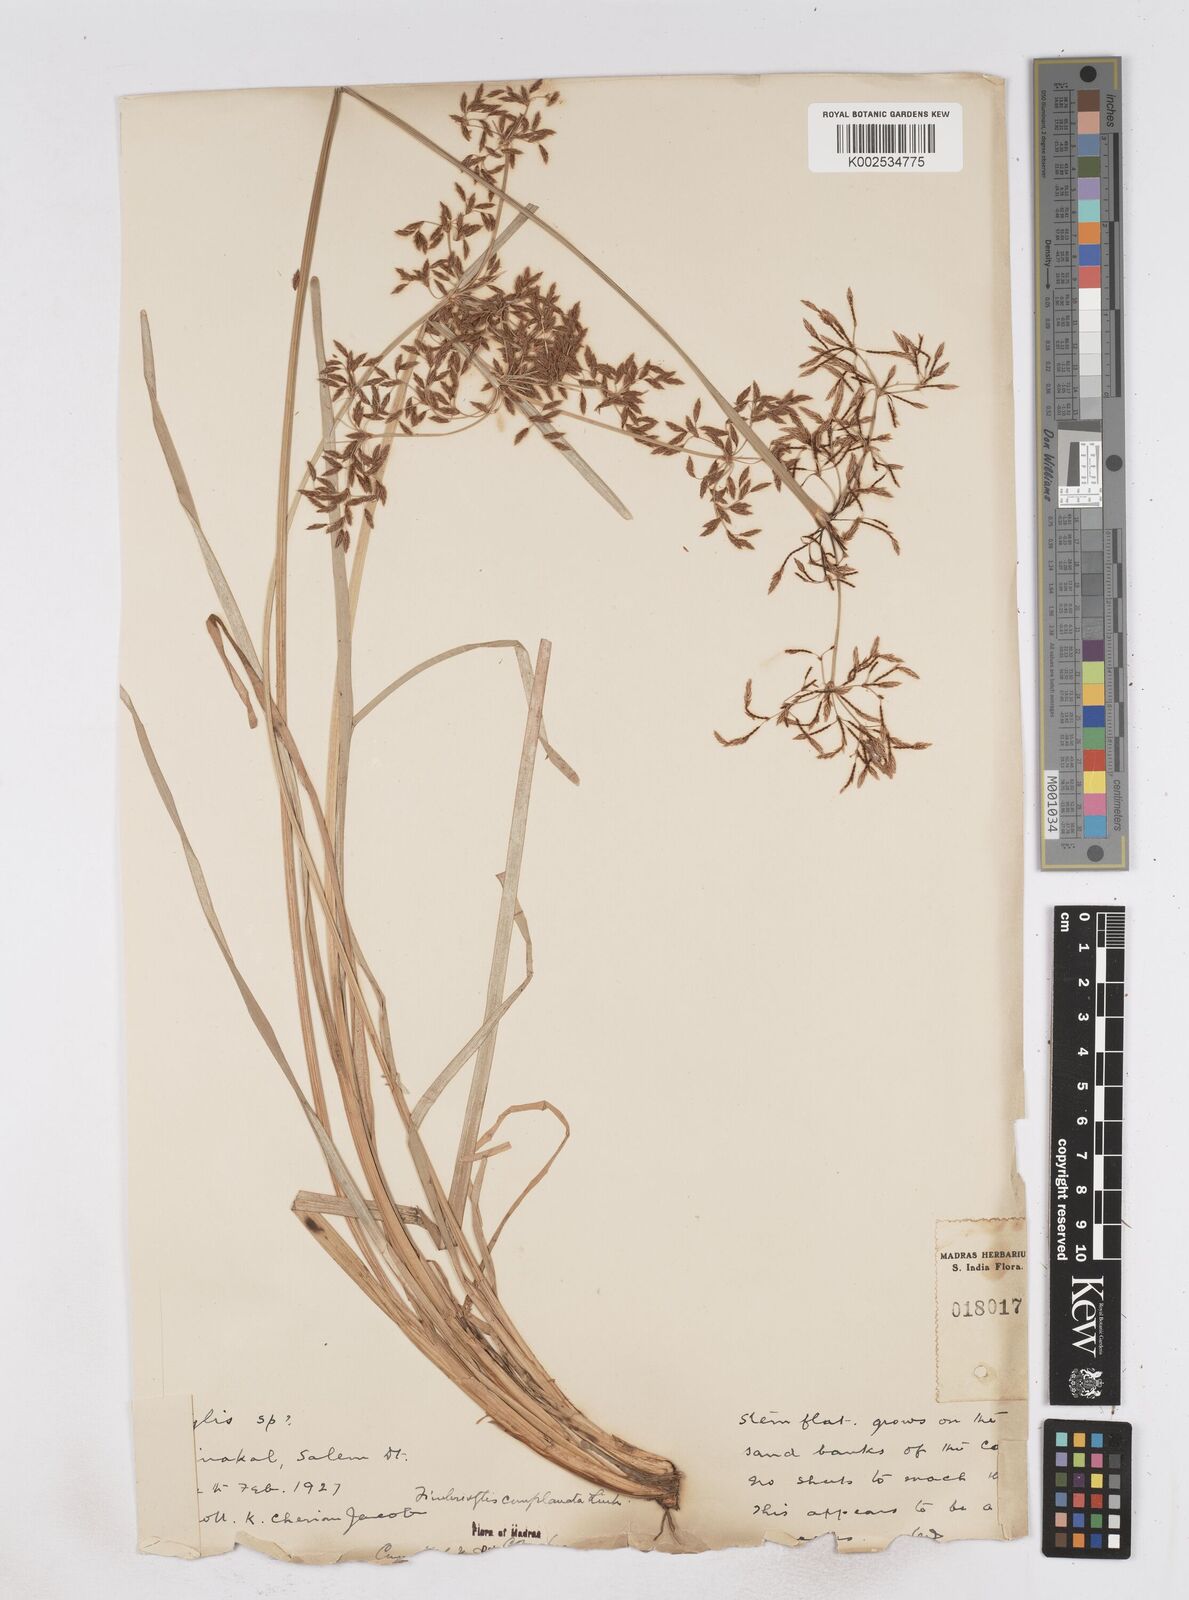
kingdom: Plantae
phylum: Tracheophyta
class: Liliopsida
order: Poales
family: Cyperaceae
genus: Fimbristylis
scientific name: Fimbristylis complanata
